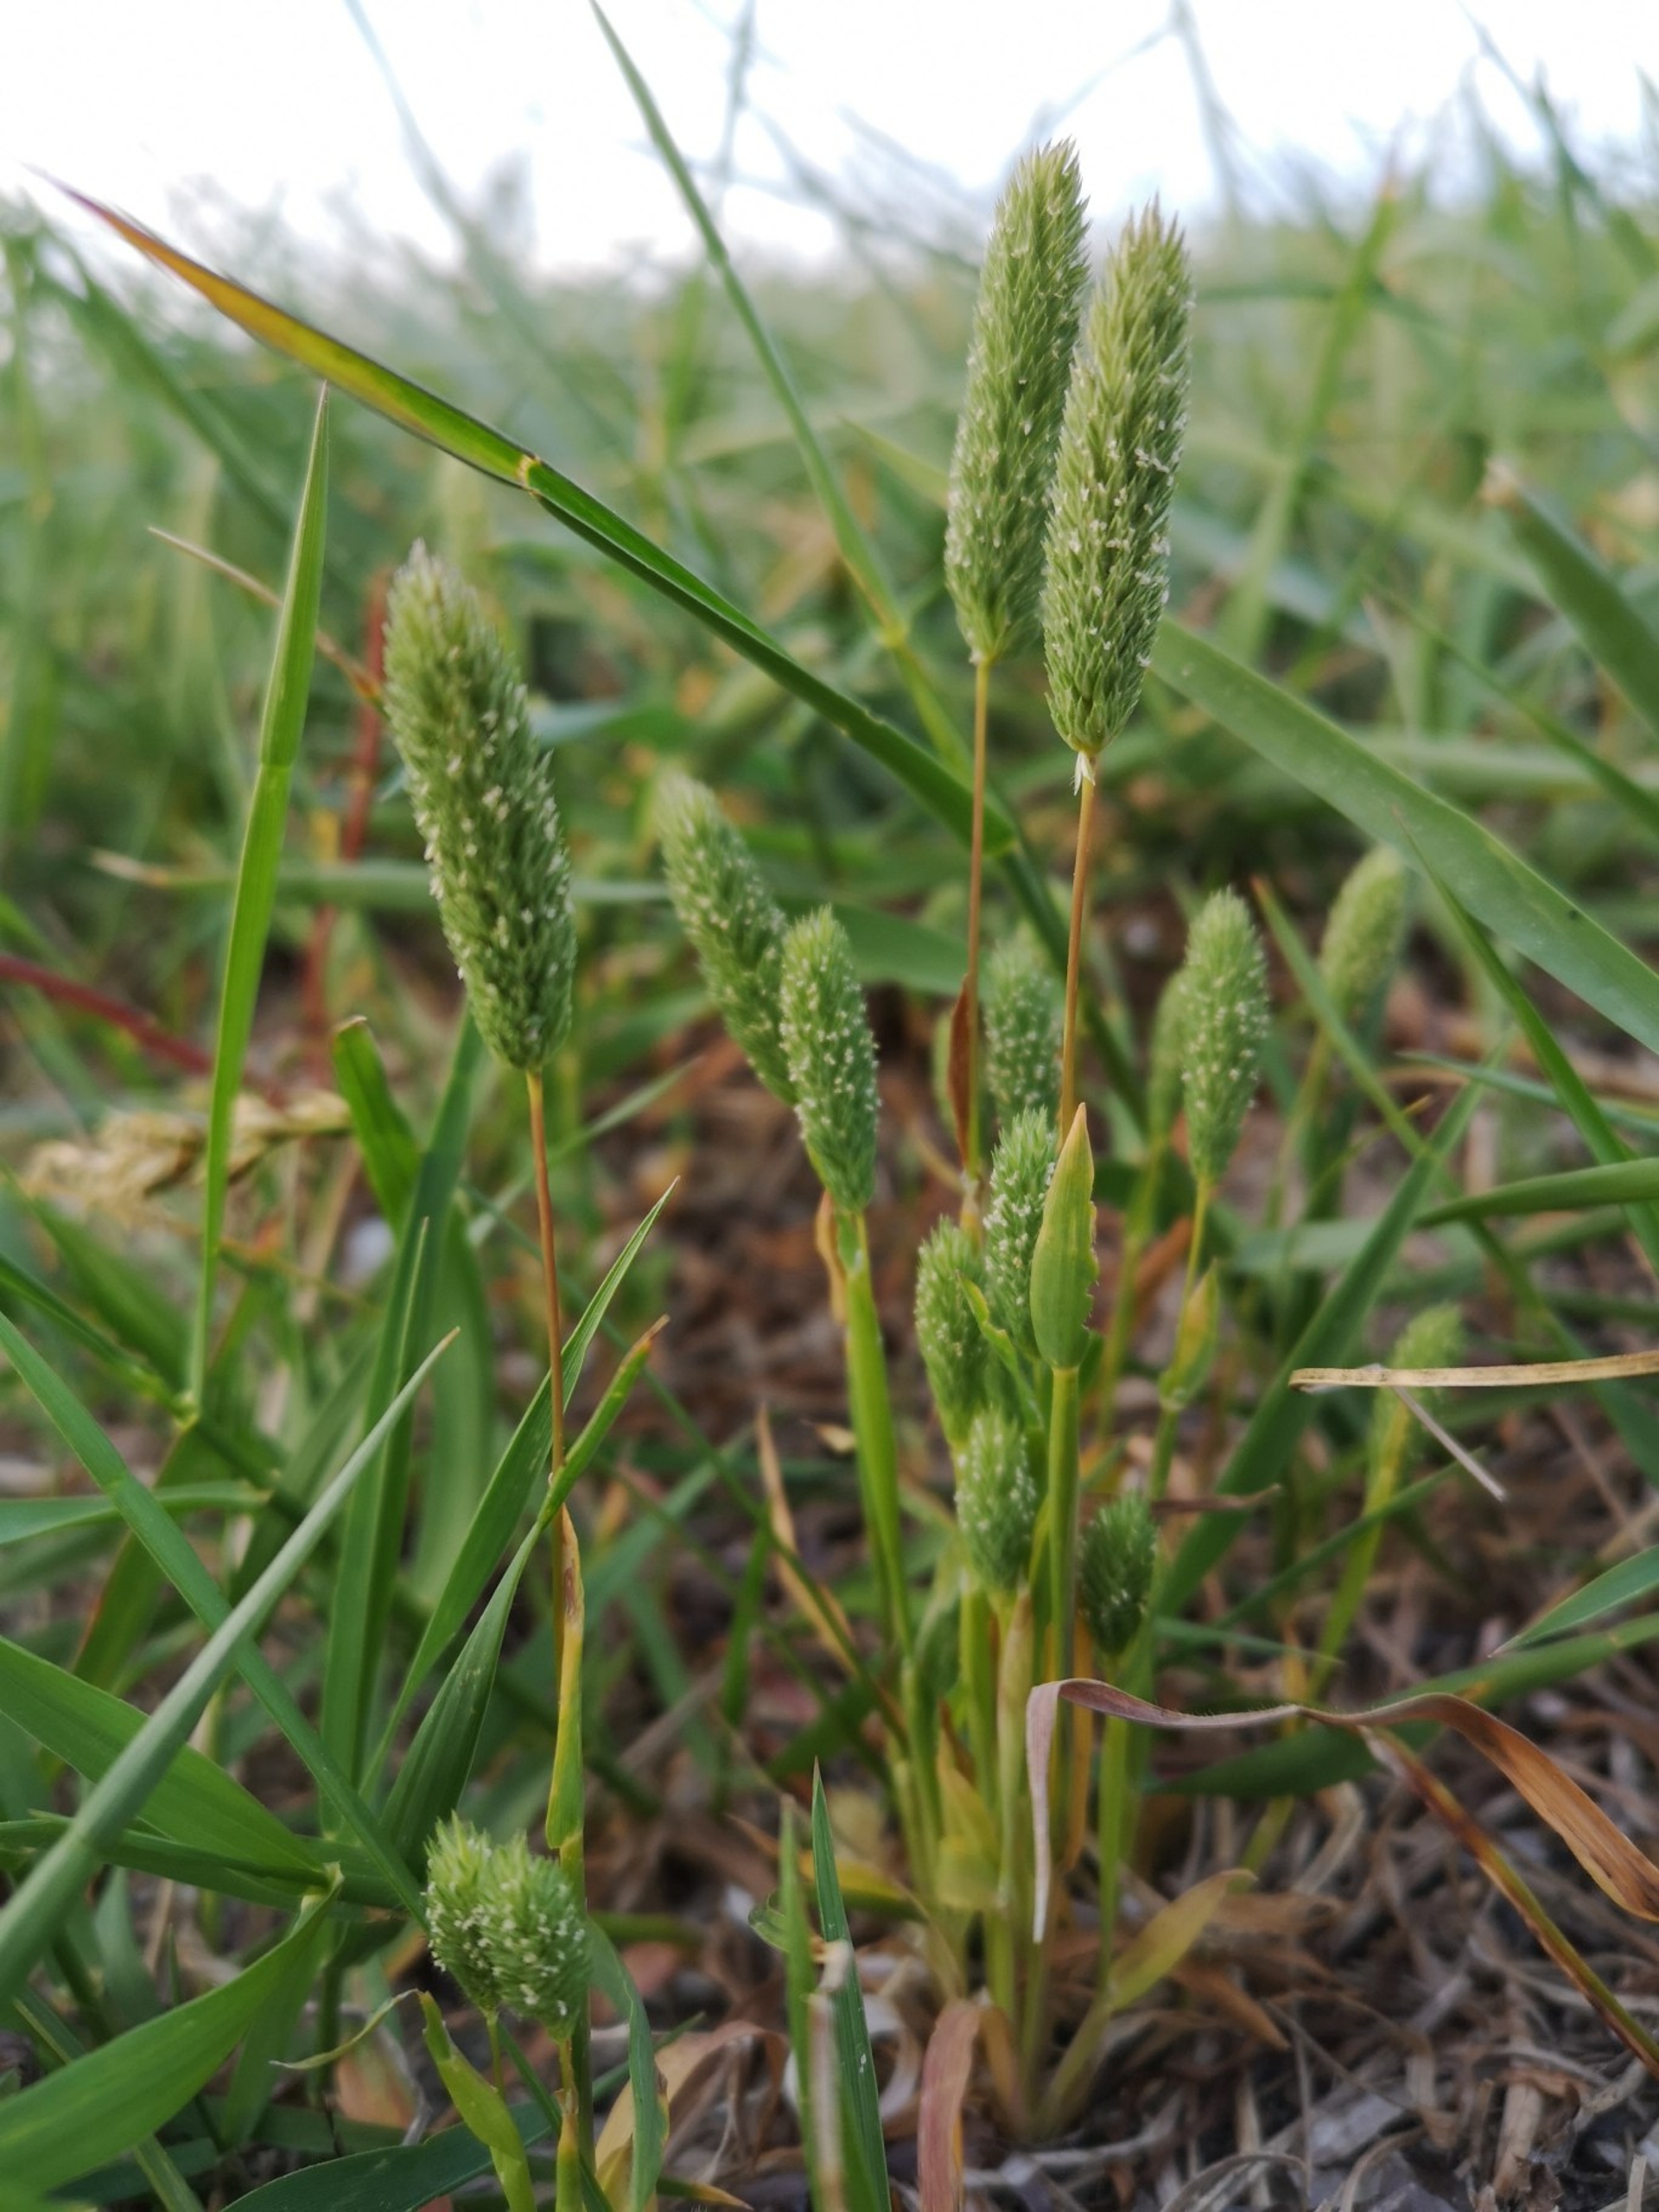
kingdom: Plantae
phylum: Tracheophyta
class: Liliopsida
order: Poales
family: Poaceae
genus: Phleum
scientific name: Phleum arenarium
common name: Sand-rottehale
